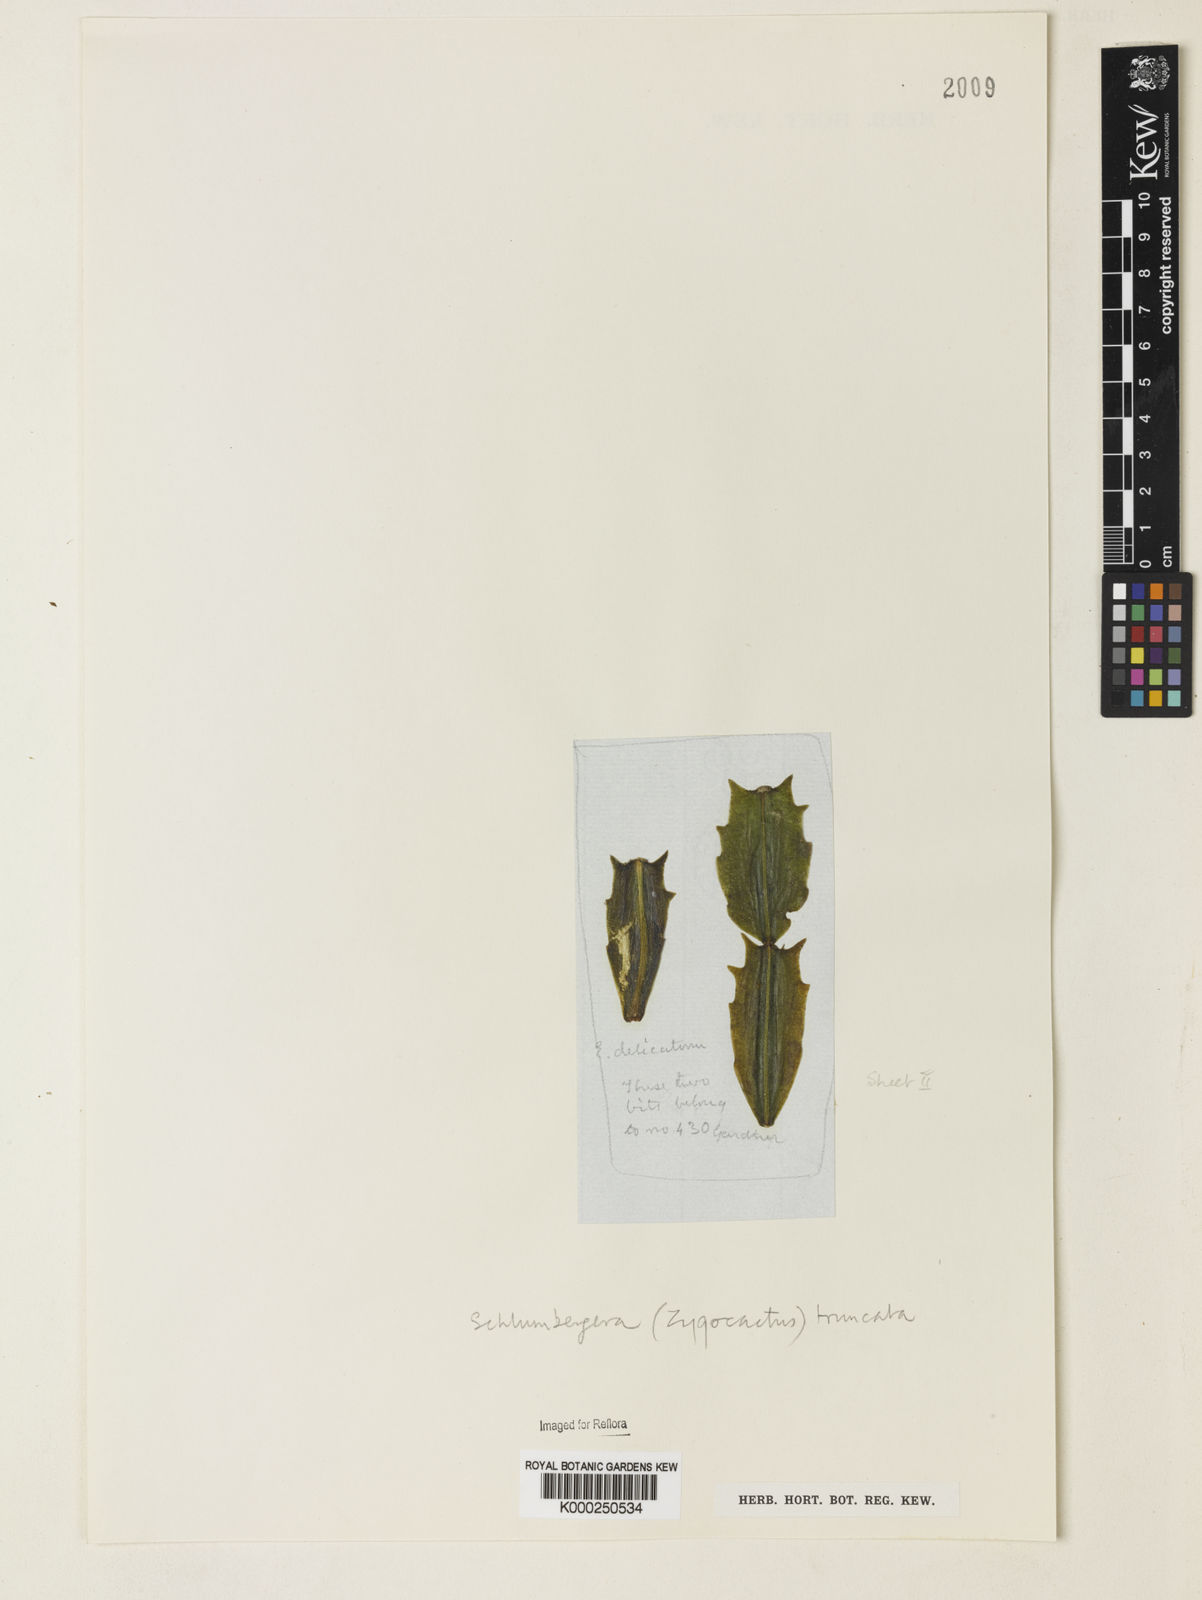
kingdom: Plantae
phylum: Tracheophyta
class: Magnoliopsida
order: Caryophyllales
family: Cactaceae
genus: Schlumbergera
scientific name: Schlumbergera truncata
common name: Thanksgiving cactus
